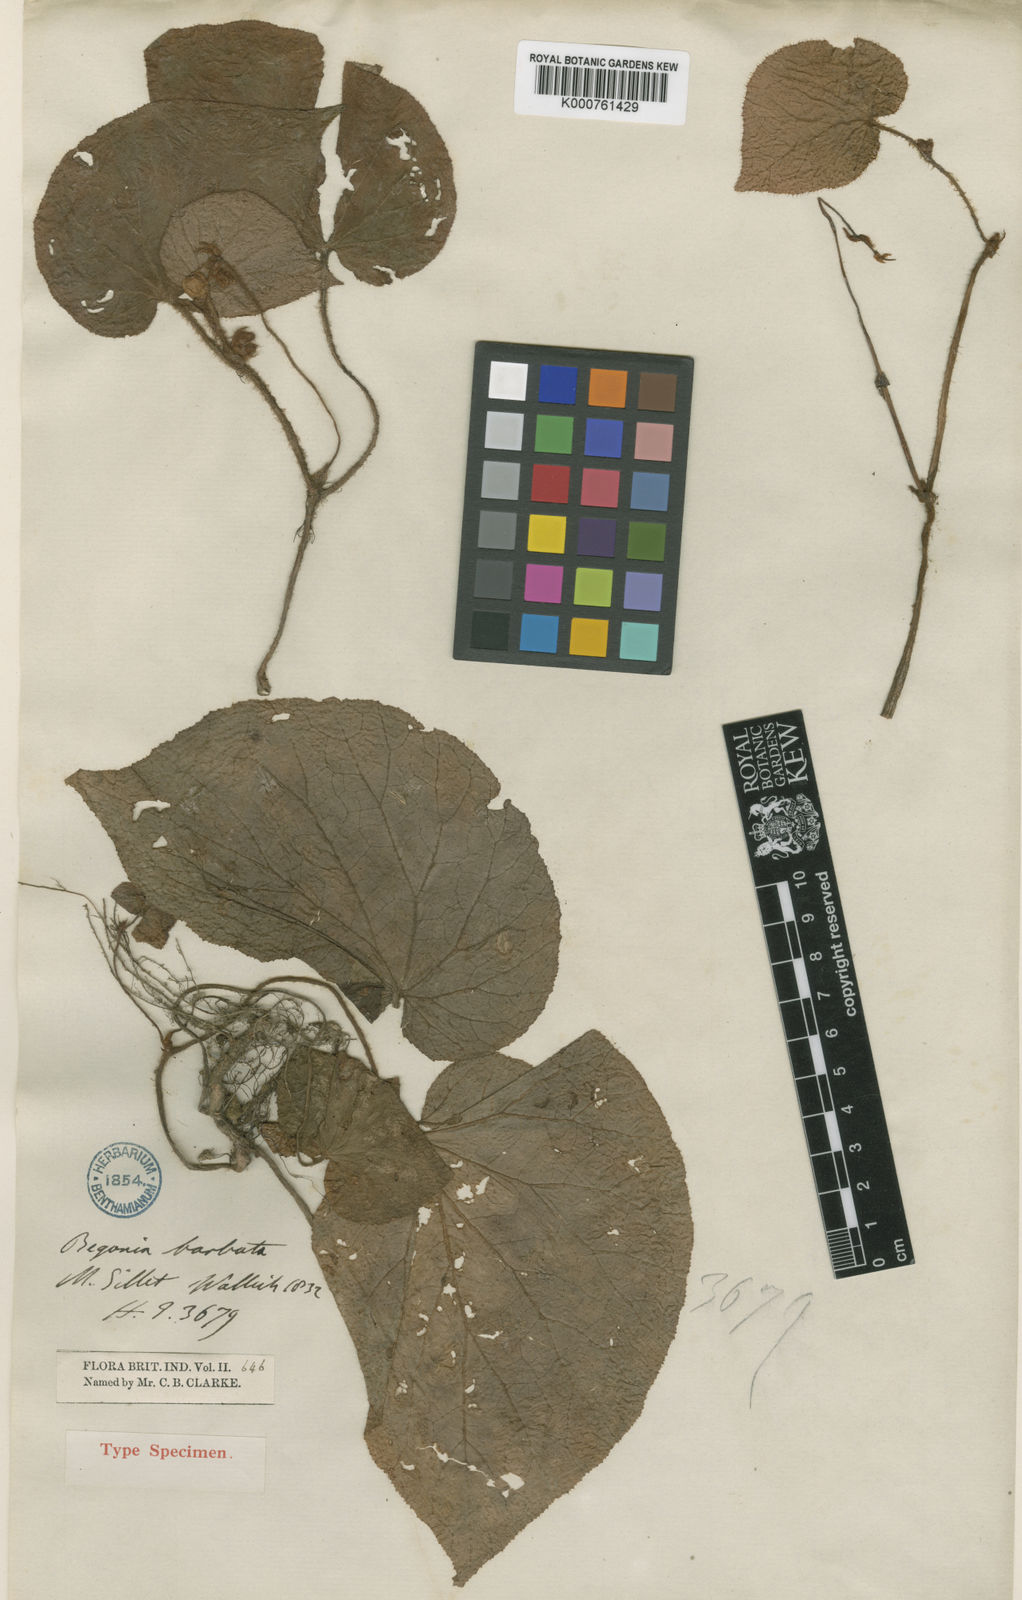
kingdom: Plantae
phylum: Tracheophyta
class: Magnoliopsida
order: Cucurbitales
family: Begoniaceae
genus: Begonia
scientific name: Begonia
